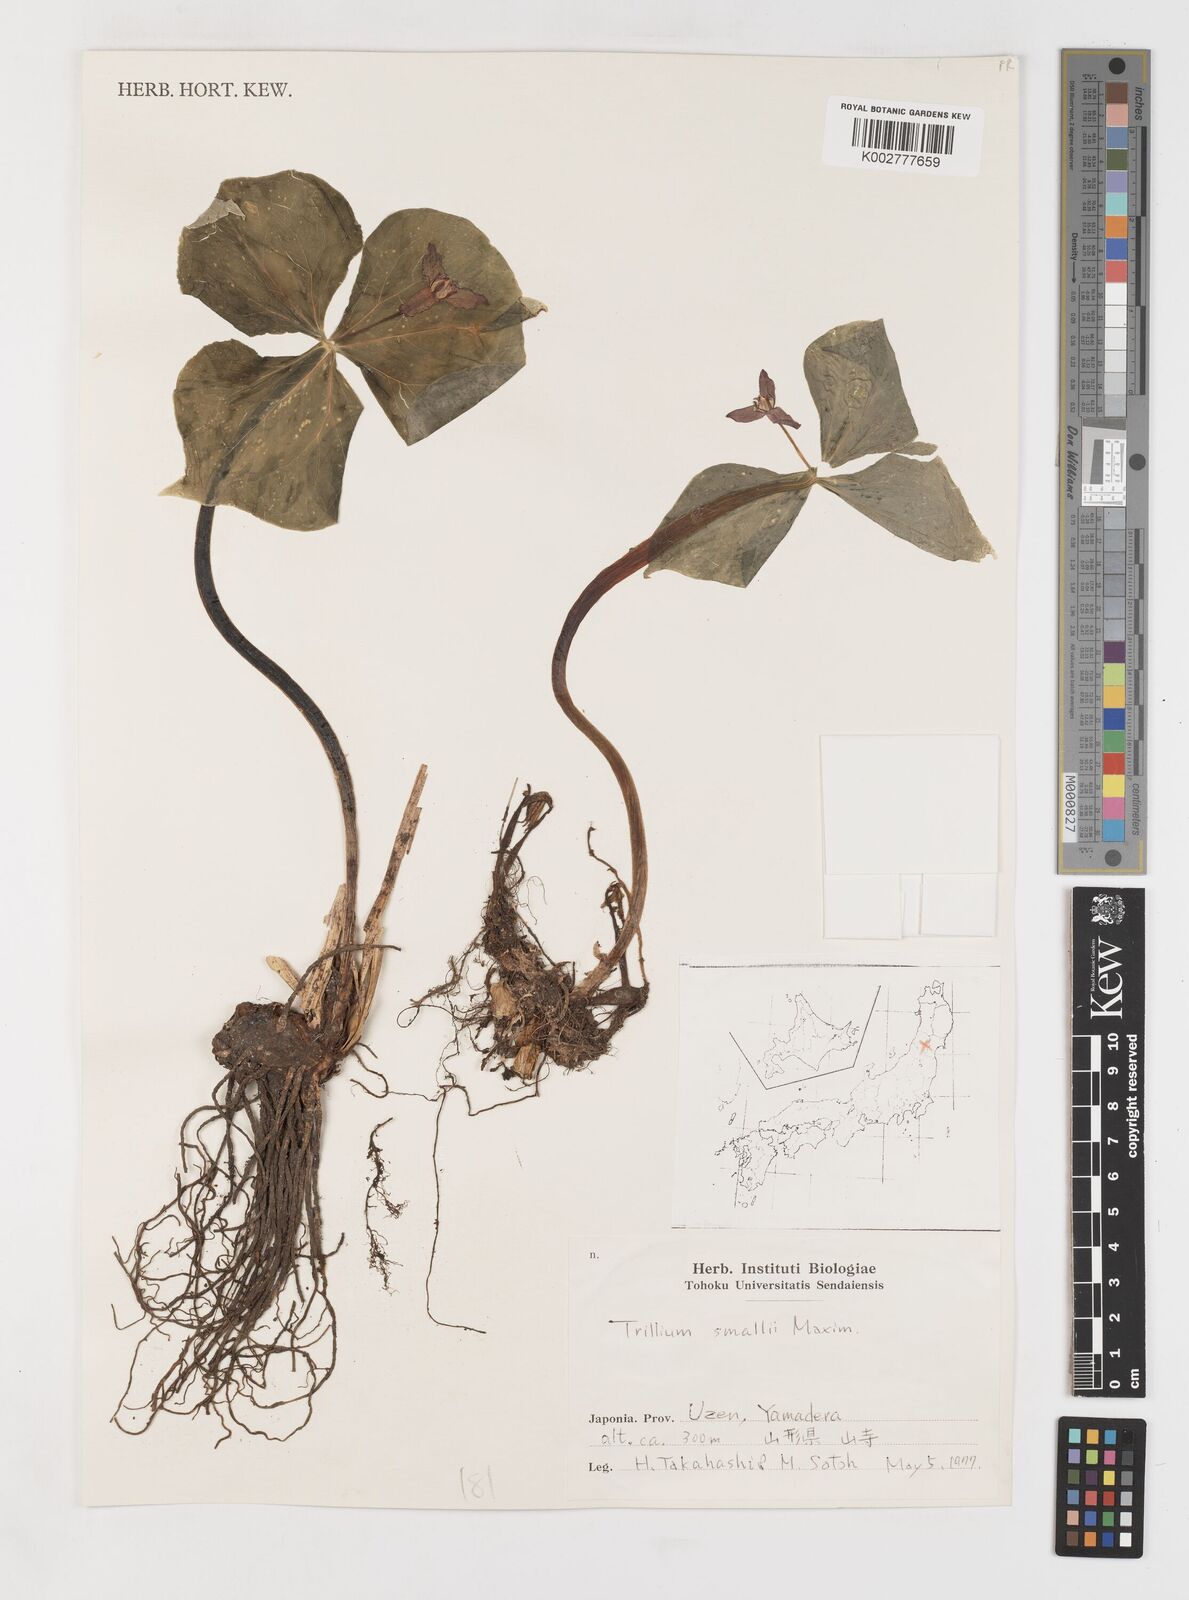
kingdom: Plantae
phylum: Tracheophyta
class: Liliopsida
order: Liliales
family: Melanthiaceae
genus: Trillium
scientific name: Trillium smallii
